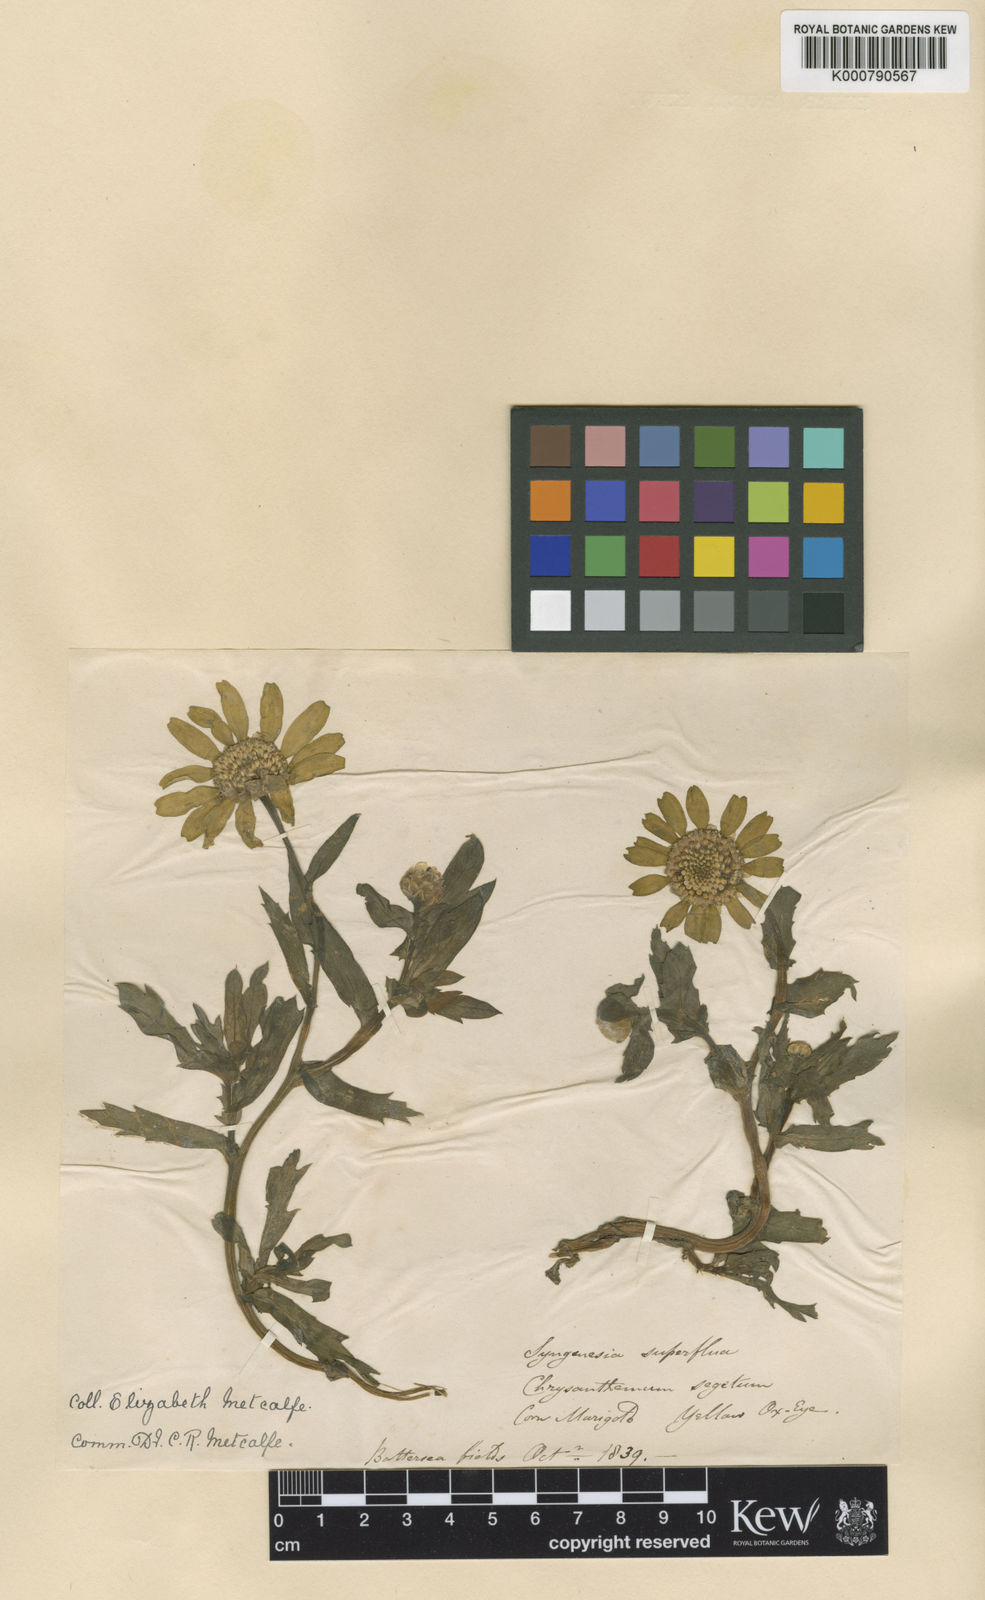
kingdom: Plantae
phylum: Tracheophyta
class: Magnoliopsida
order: Asterales
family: Asteraceae
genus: Glebionis
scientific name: Glebionis segetum
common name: Corndaisy
